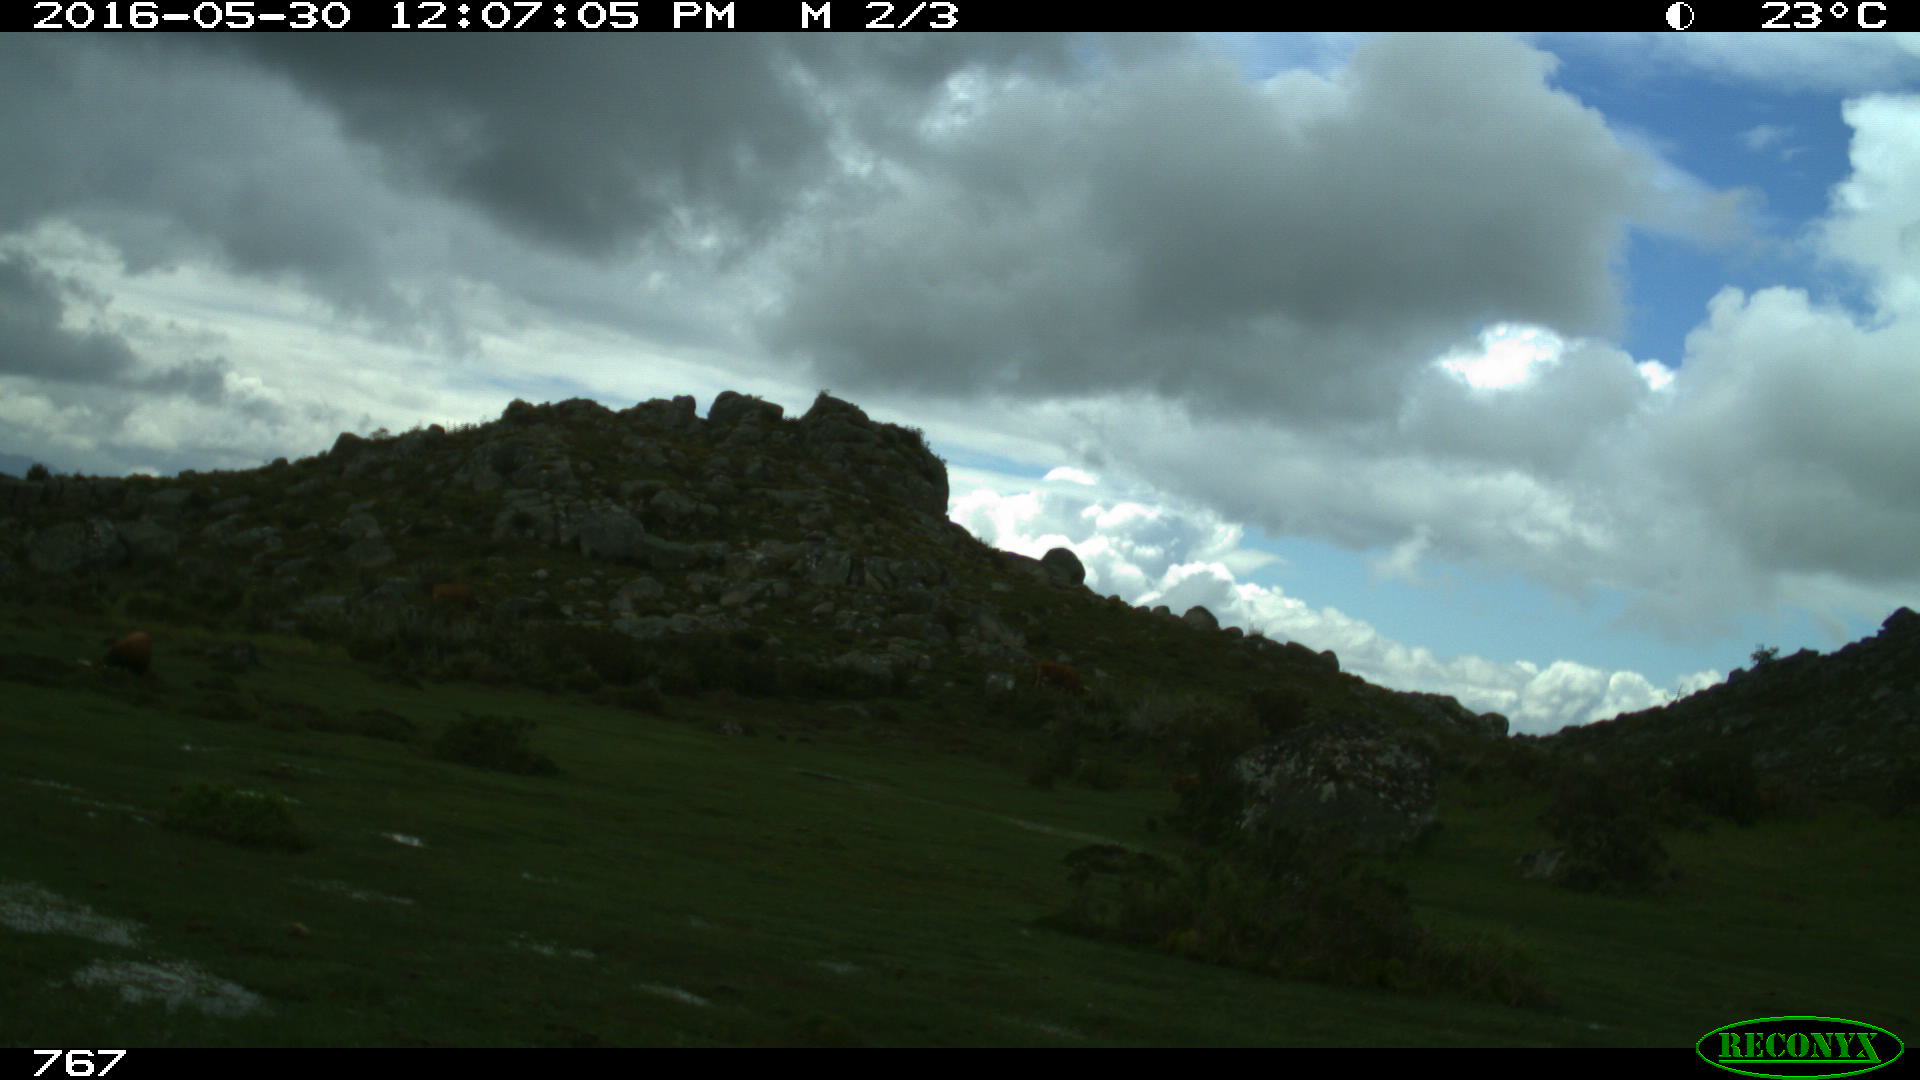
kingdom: Animalia
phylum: Chordata
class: Mammalia
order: Artiodactyla
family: Bovidae
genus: Bos
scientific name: Bos taurus
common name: Domesticated cattle
